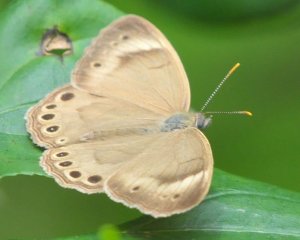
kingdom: Animalia
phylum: Arthropoda
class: Insecta
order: Lepidoptera
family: Nymphalidae
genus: Lethe
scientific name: Lethe eurydice
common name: Appalachian Eyed Brown
